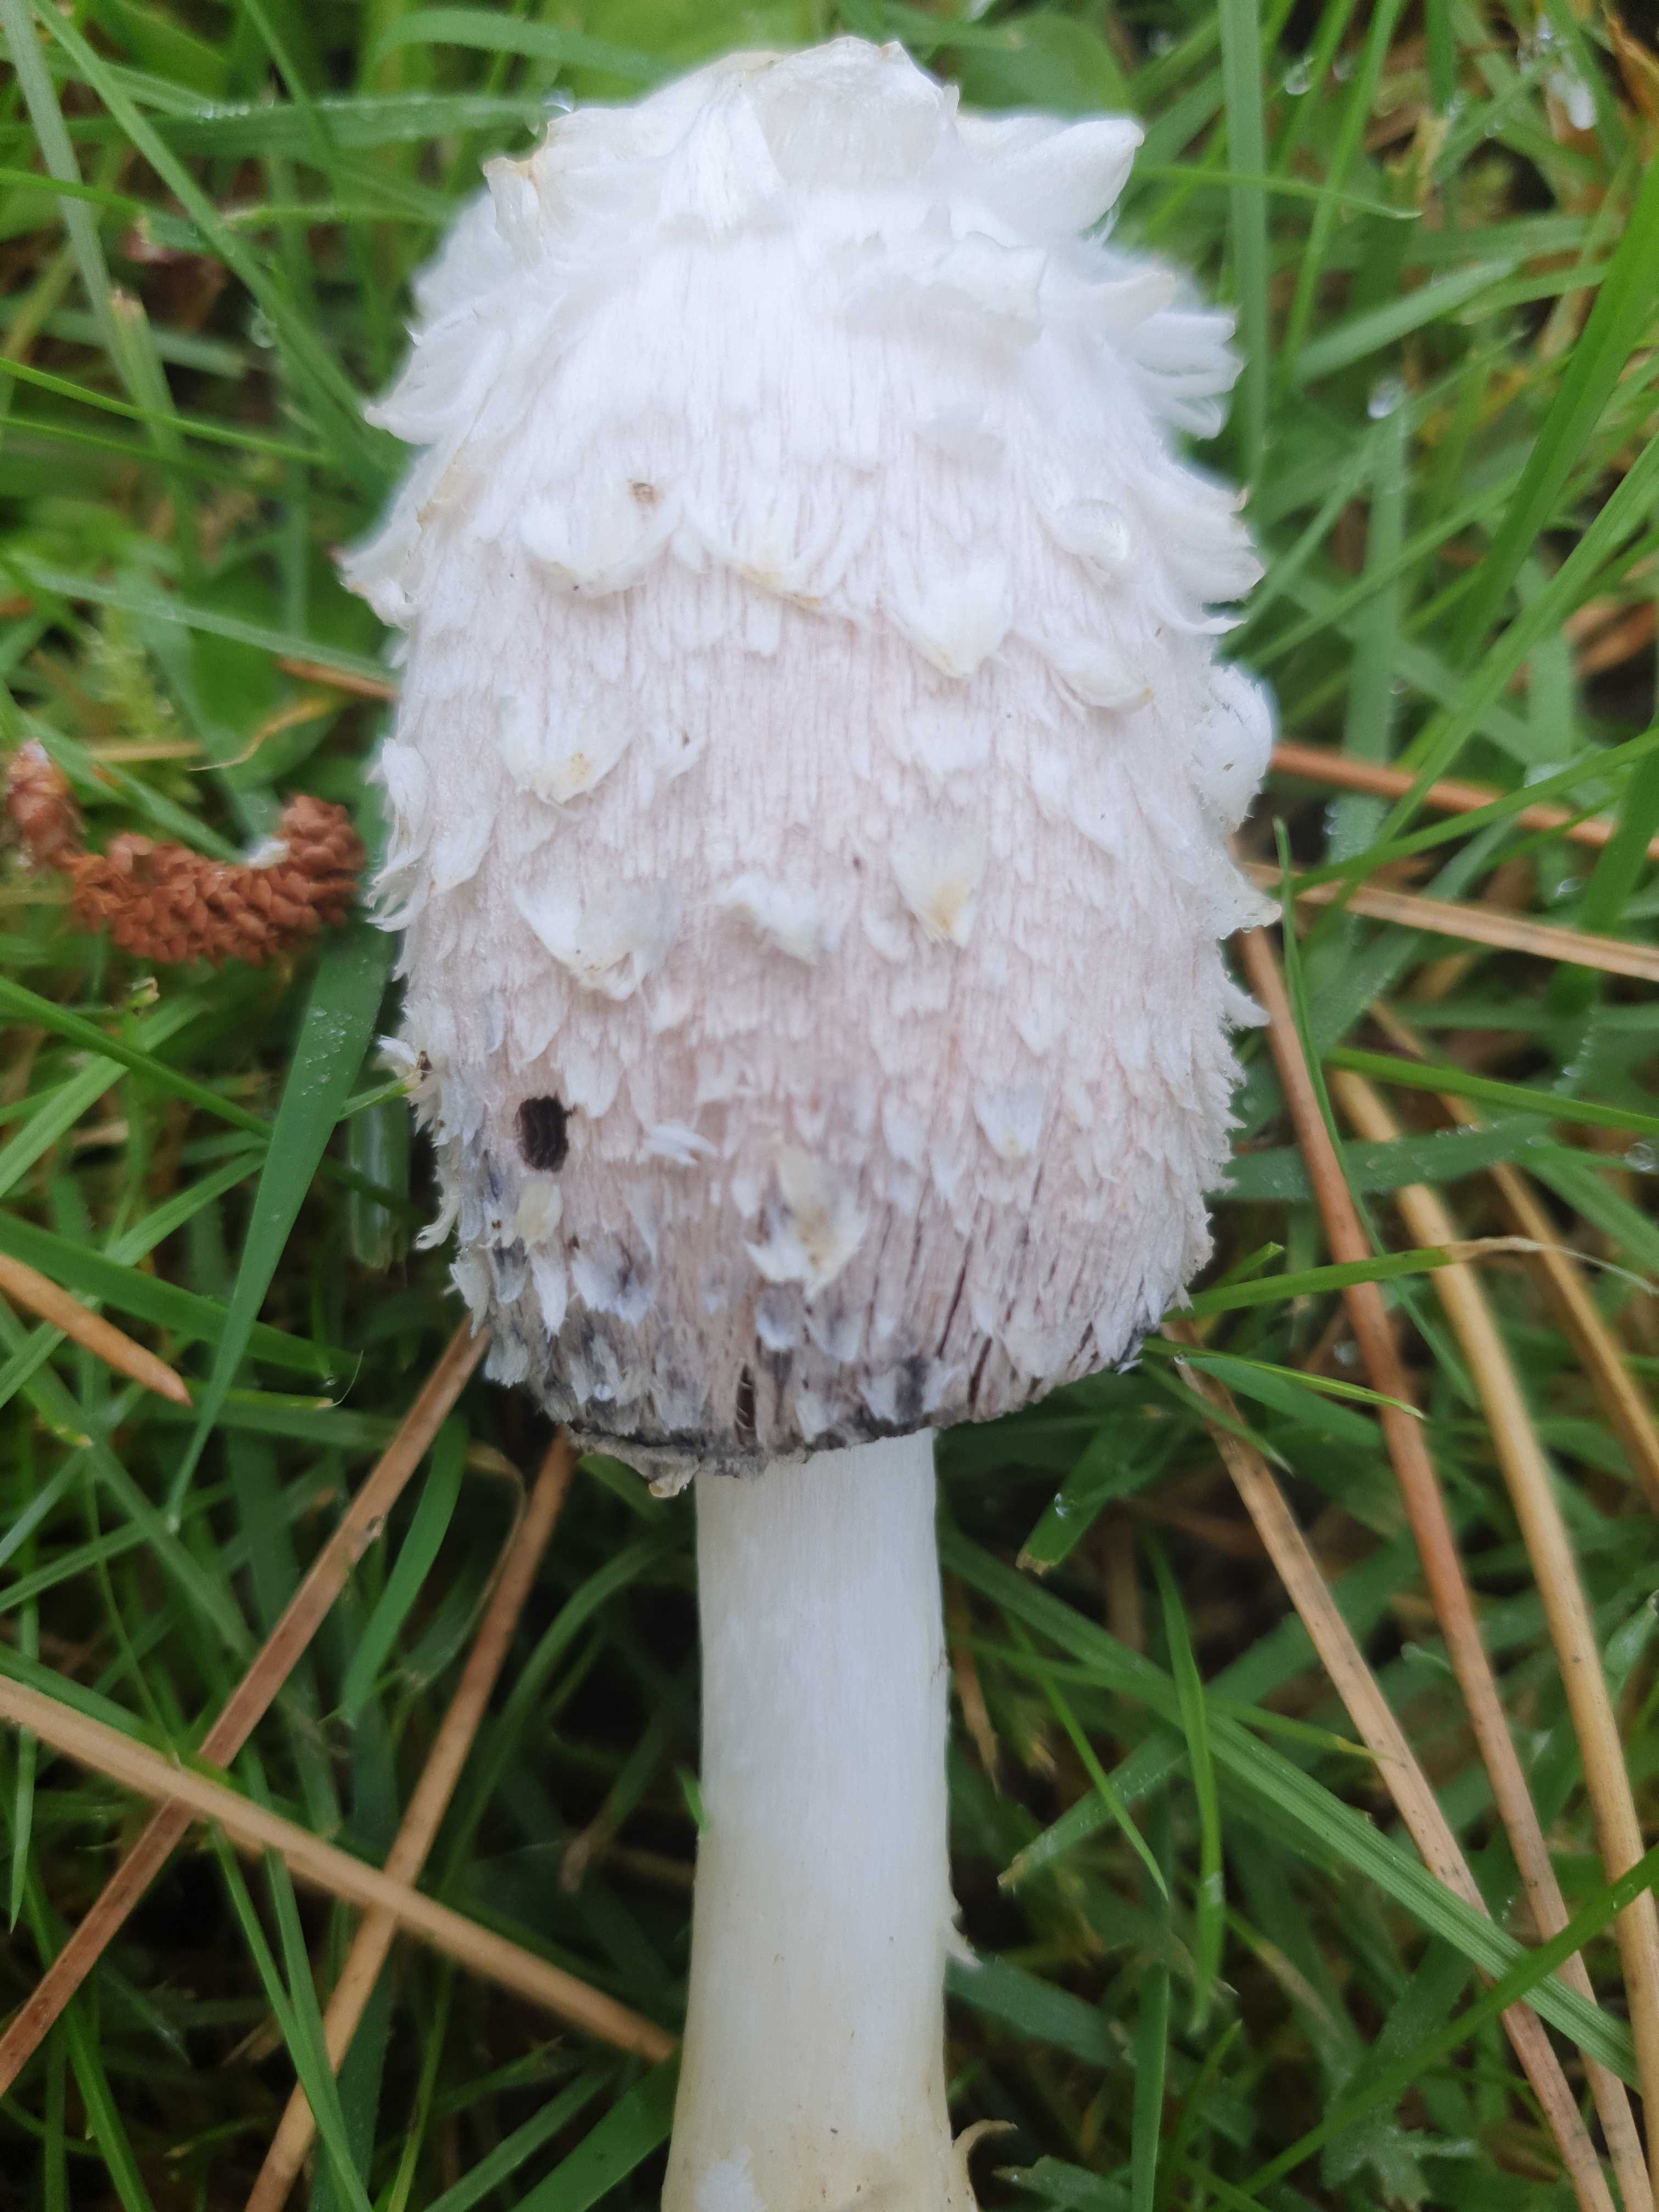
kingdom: Fungi
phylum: Basidiomycota
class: Agaricomycetes
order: Agaricales
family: Agaricaceae
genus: Coprinus
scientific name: Coprinus comatus
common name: stor parykhat
